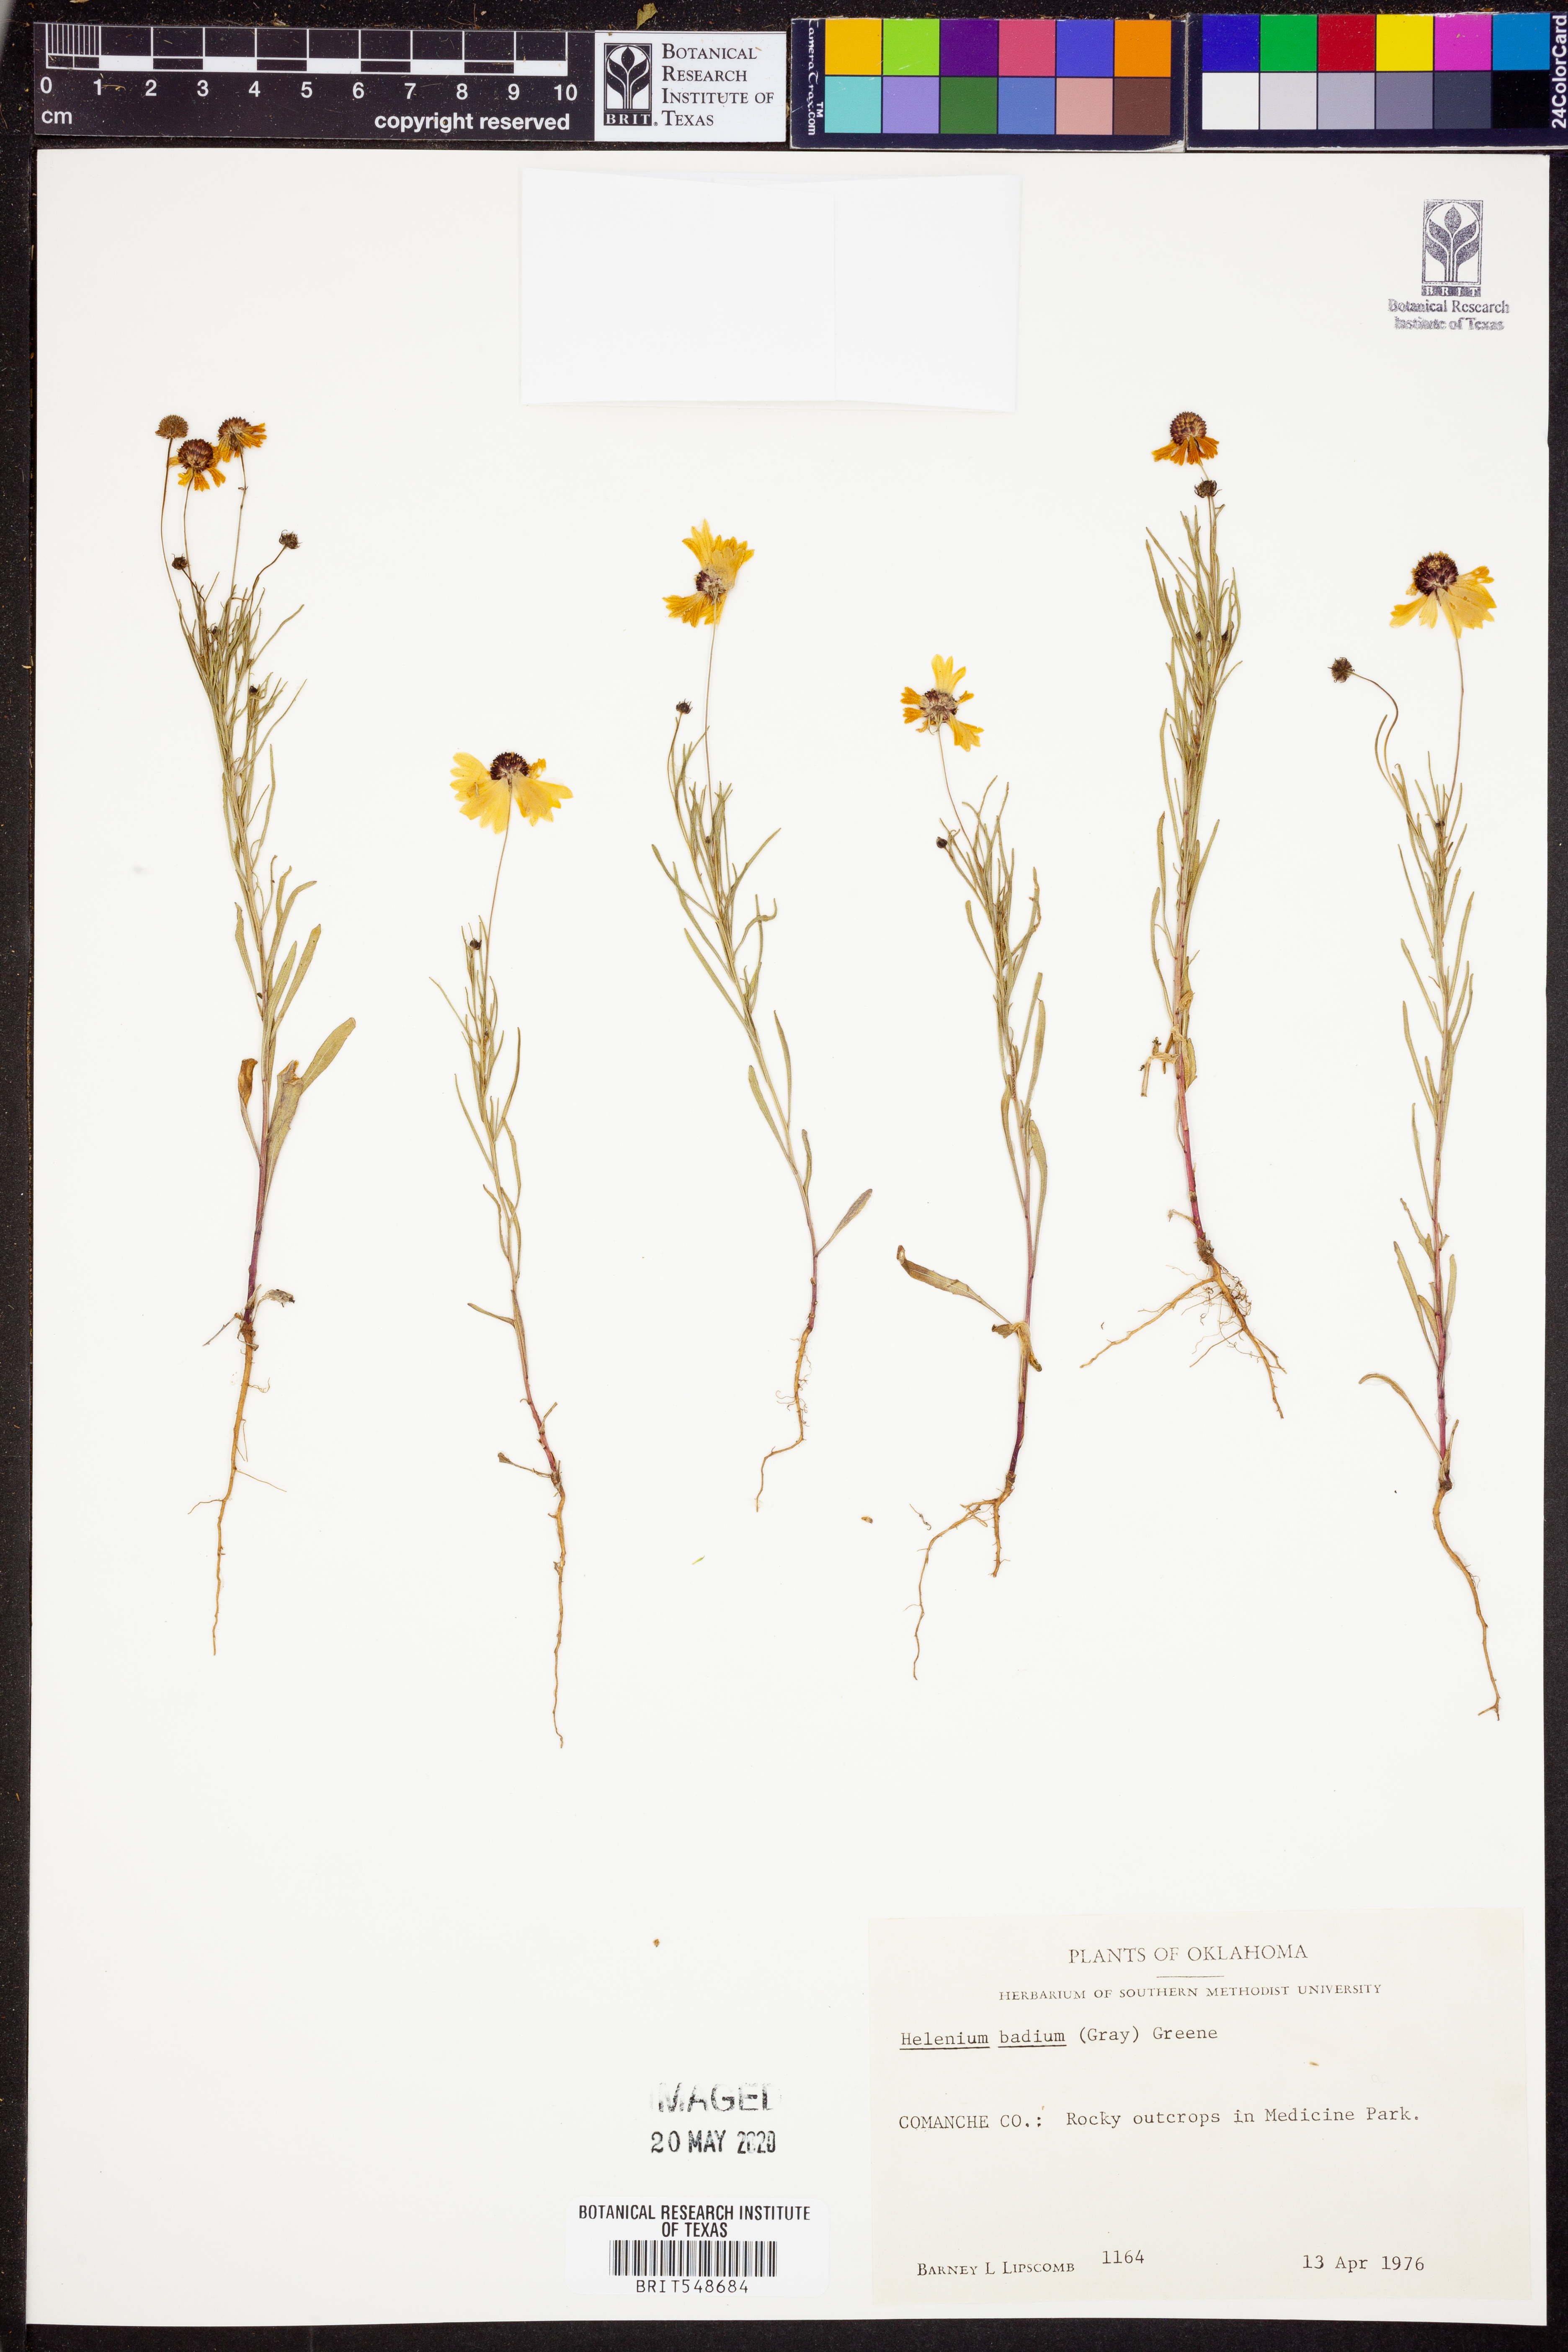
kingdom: Plantae
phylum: Tracheophyta
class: Magnoliopsida
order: Asterales
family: Asteraceae
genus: Helenium
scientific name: Helenium amarum
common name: Bitter sneezeweed
